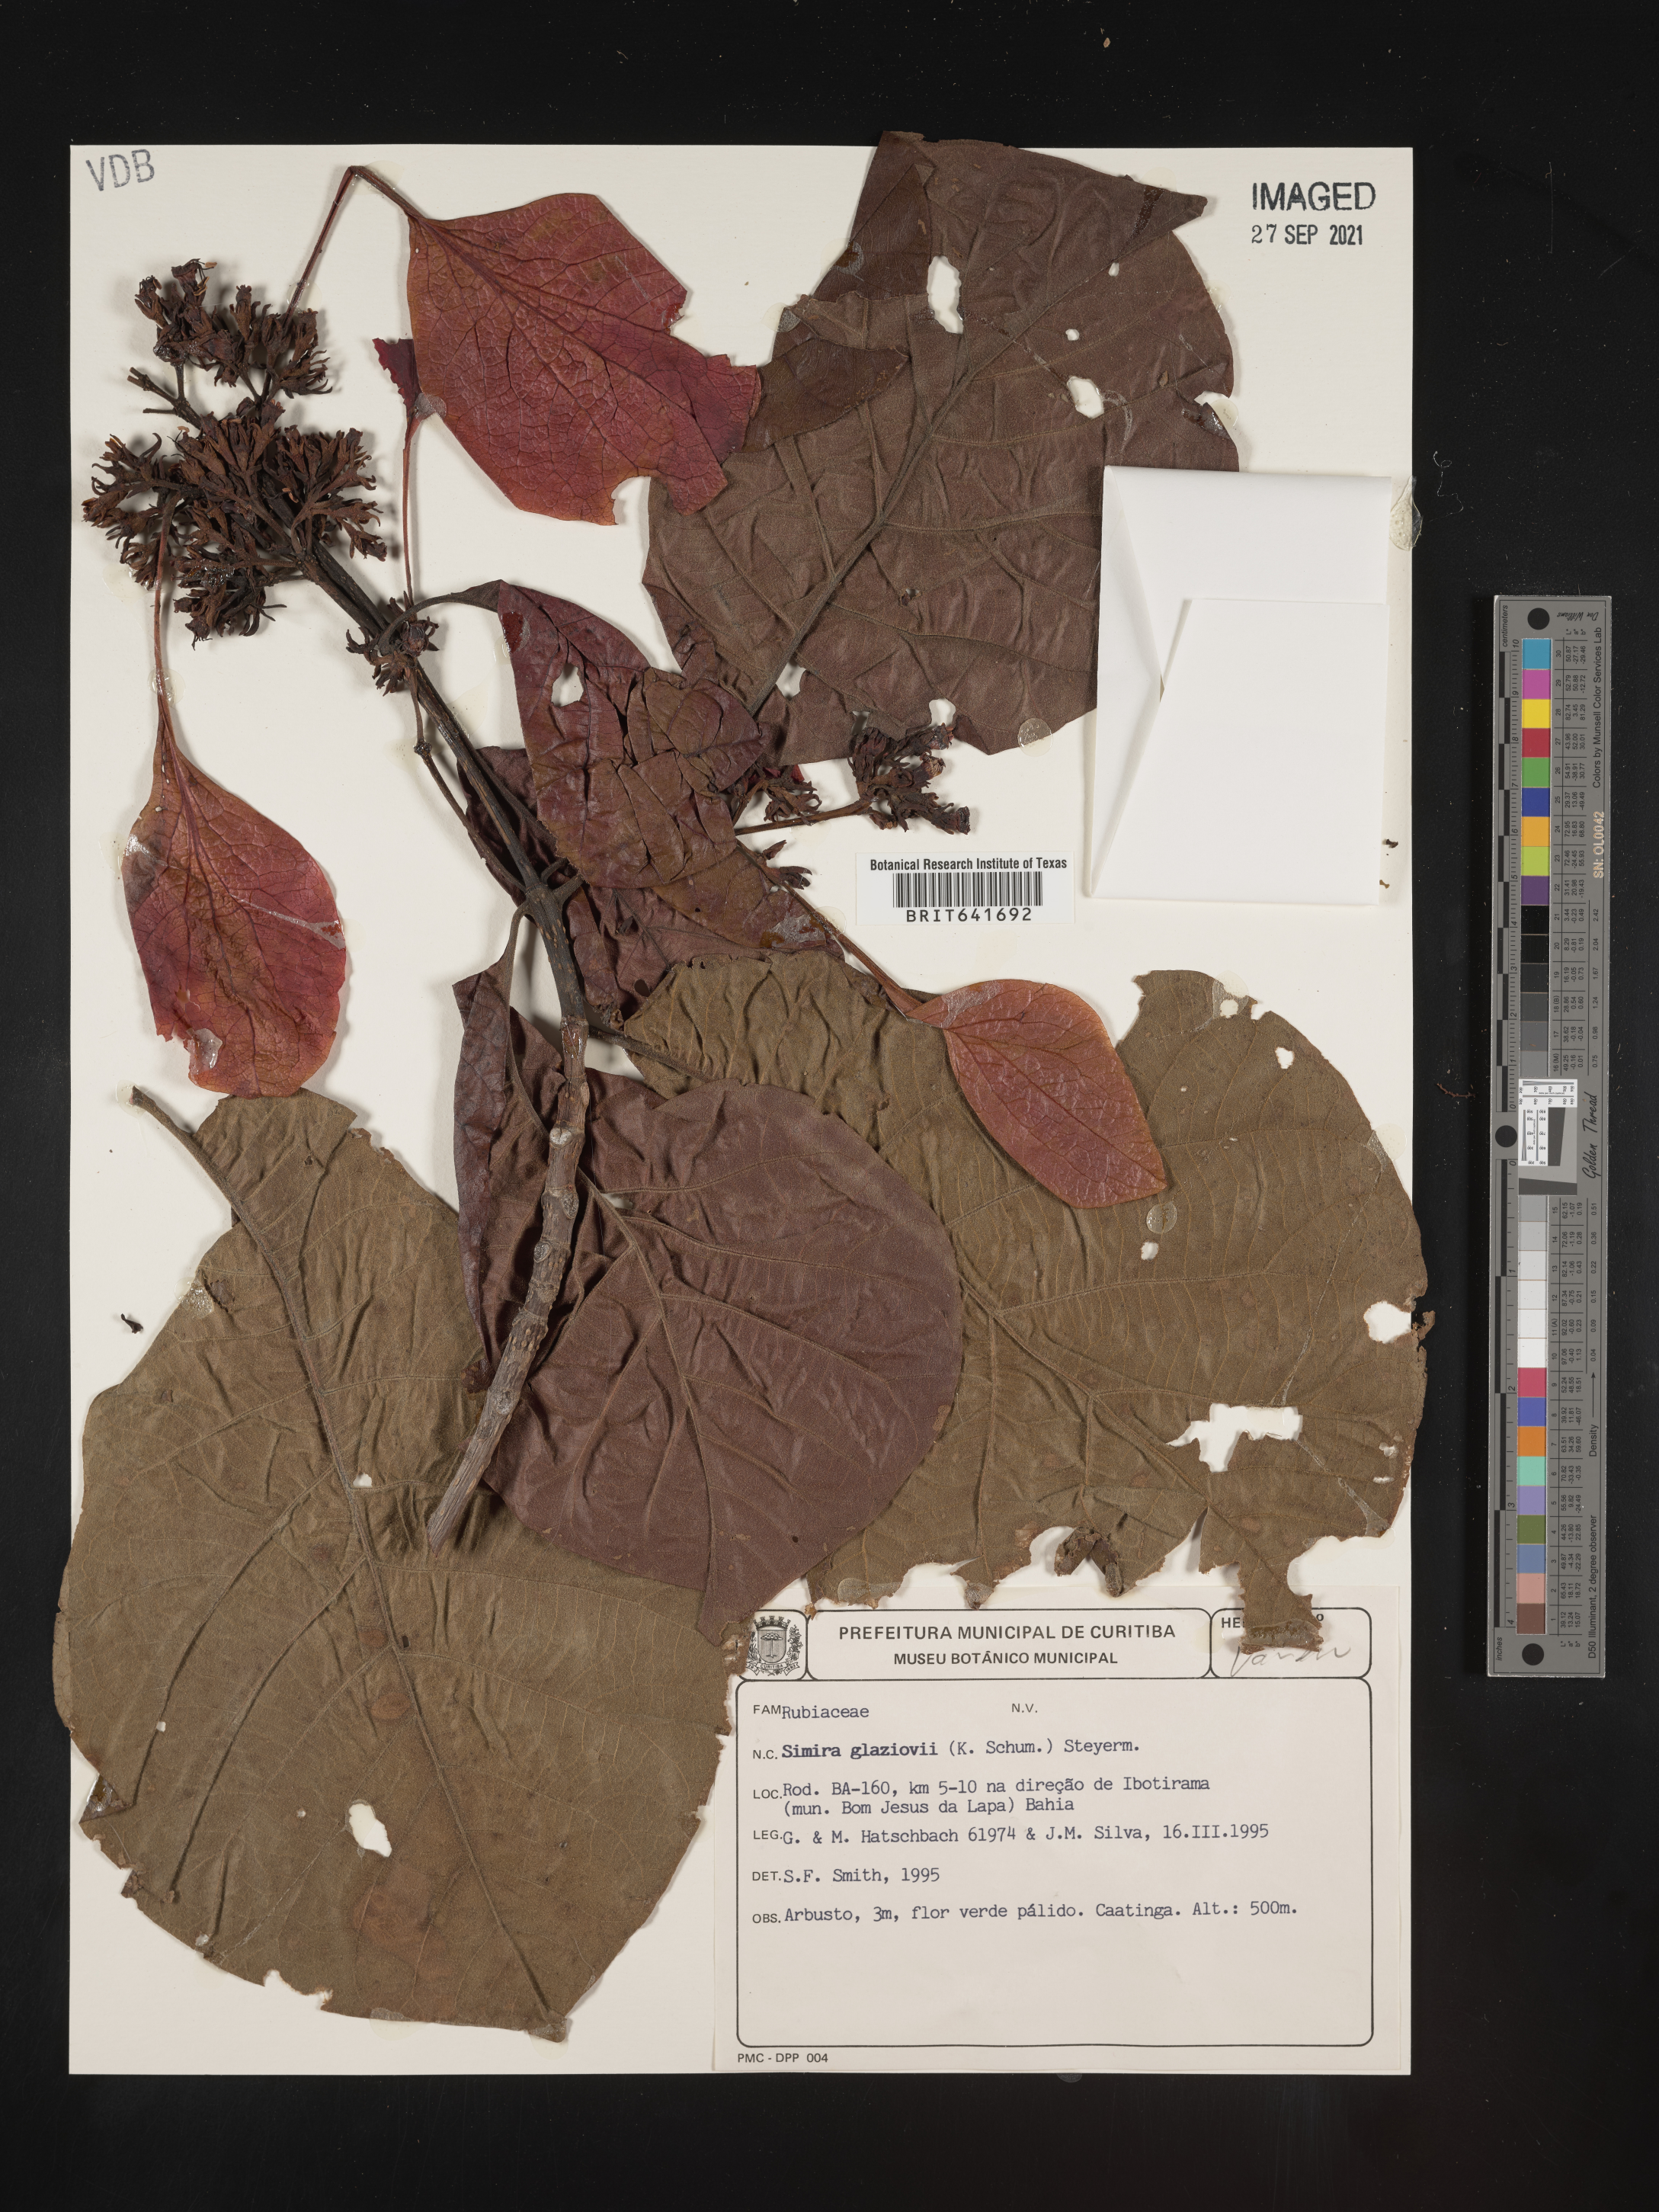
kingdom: Plantae
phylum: Tracheophyta
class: Magnoliopsida
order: Gentianales
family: Rubiaceae
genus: Simira
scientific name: Simira
